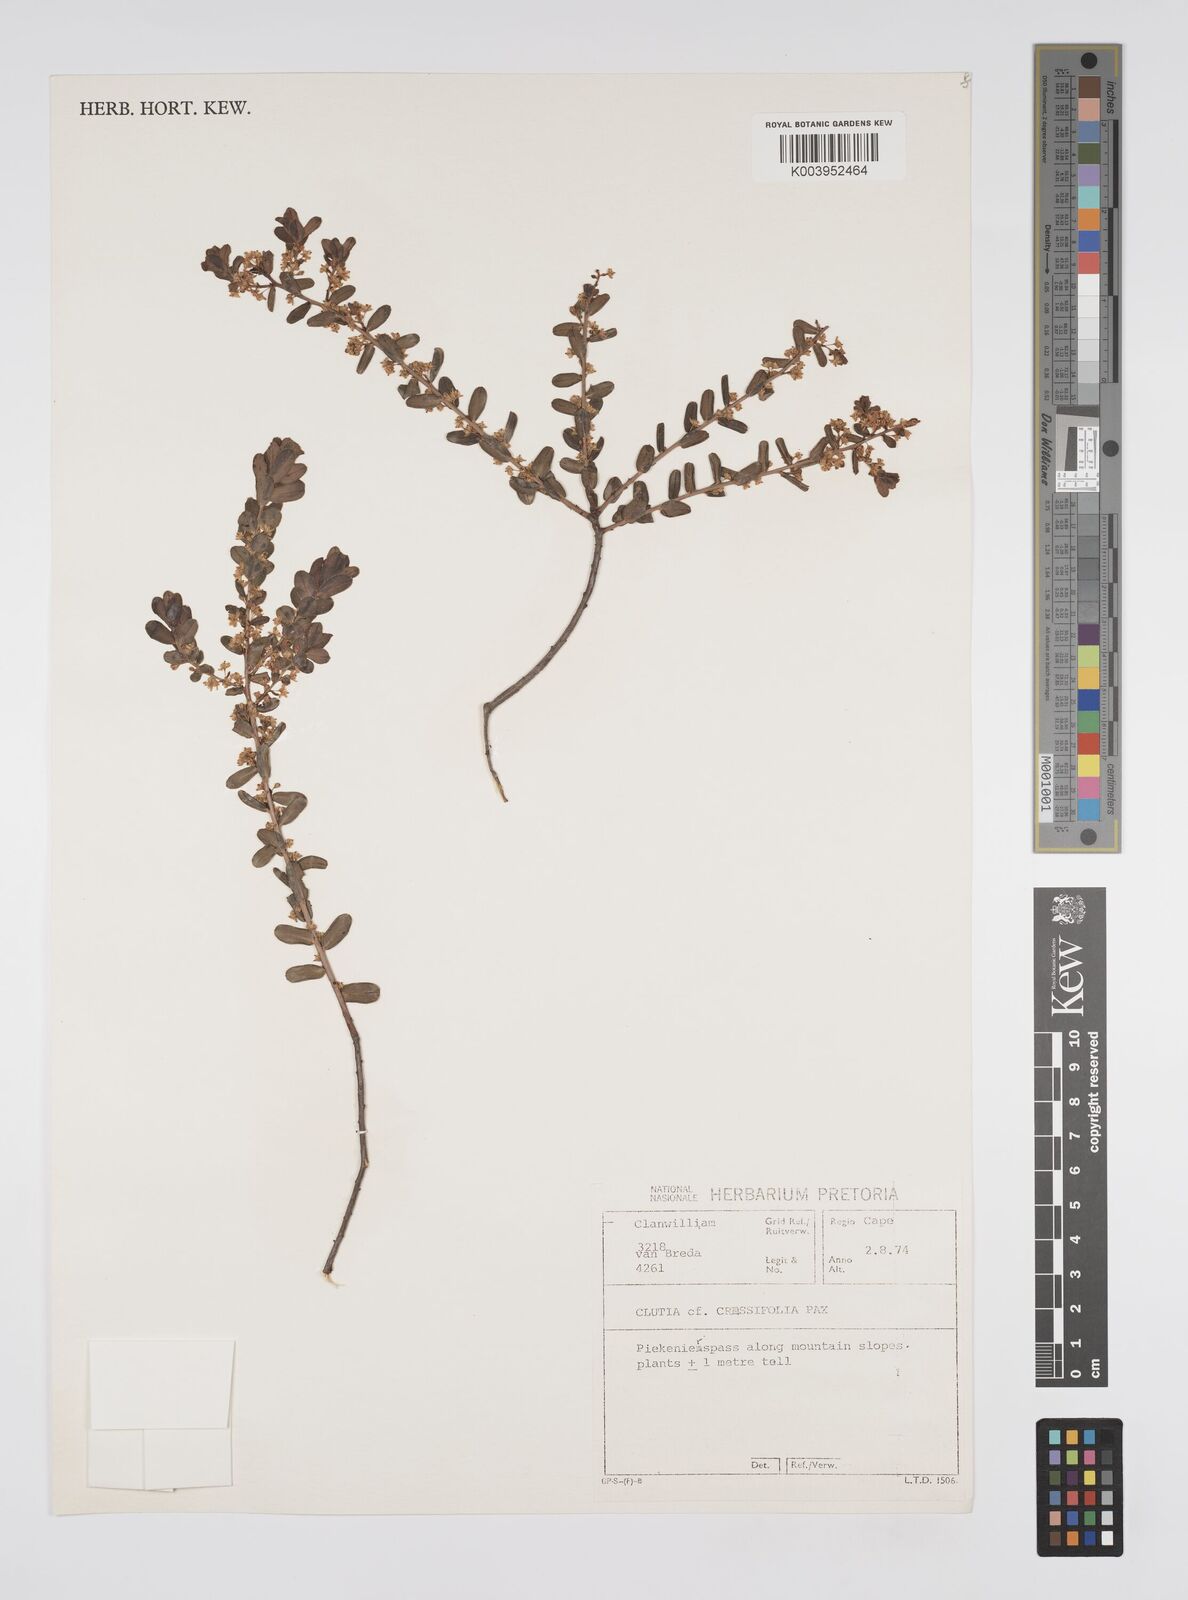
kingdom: Plantae
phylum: Tracheophyta
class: Magnoliopsida
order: Malpighiales
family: Peraceae
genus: Clutia
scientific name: Clutia thunbergii
